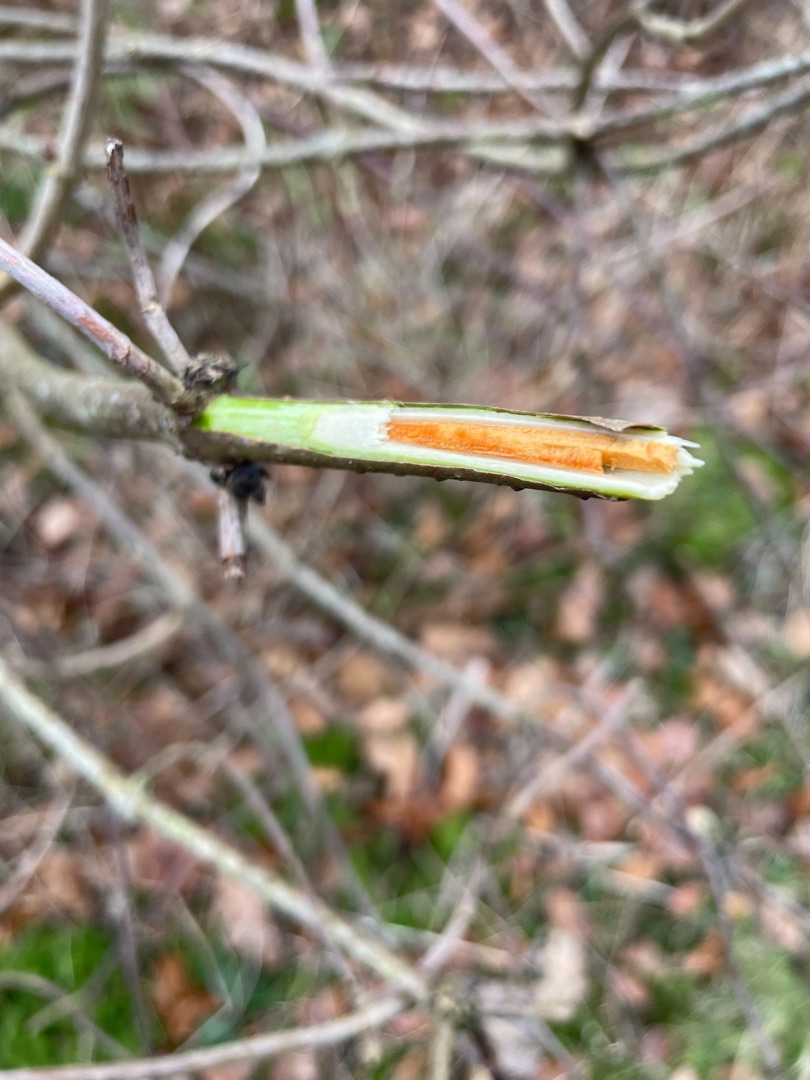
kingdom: Plantae
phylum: Tracheophyta
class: Magnoliopsida
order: Dipsacales
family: Viburnaceae
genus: Sambucus
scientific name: Sambucus racemosa
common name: Drue-hyld
